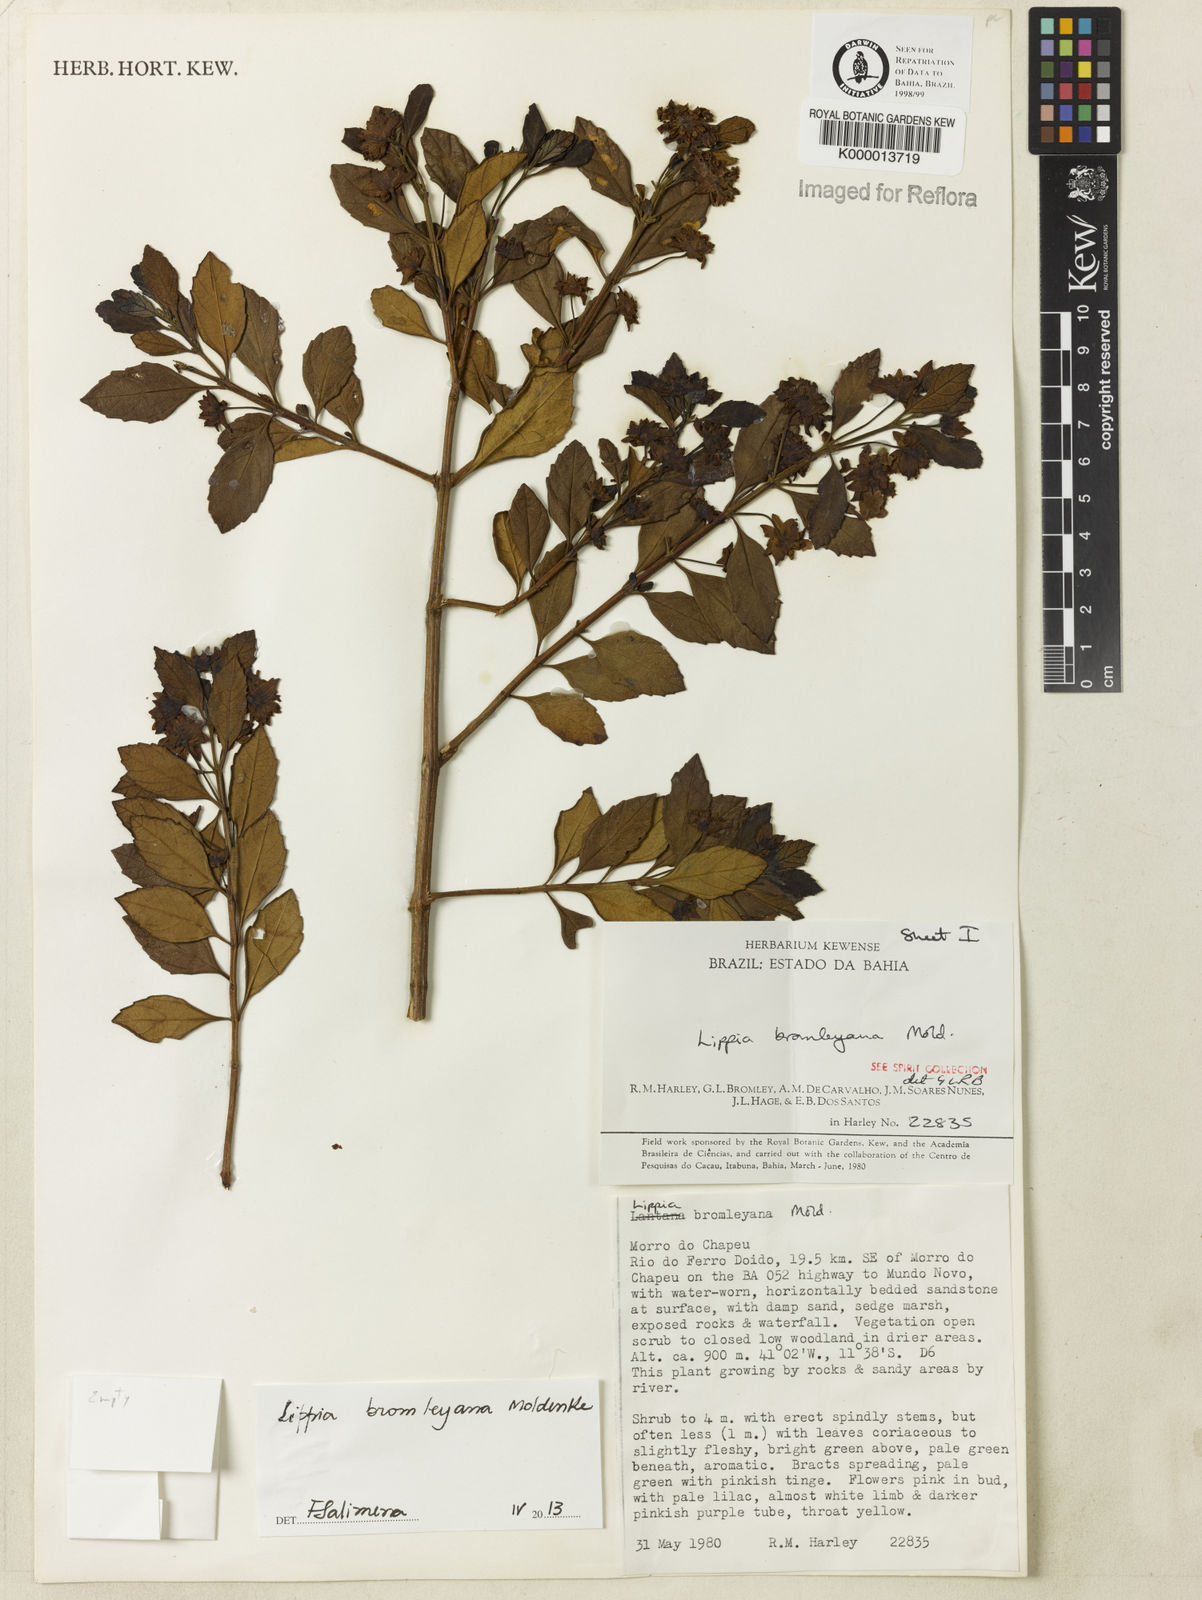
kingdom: Plantae
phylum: Tracheophyta
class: Magnoliopsida
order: Lamiales
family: Verbenaceae
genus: Lippia
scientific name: Lippia bromleyana
